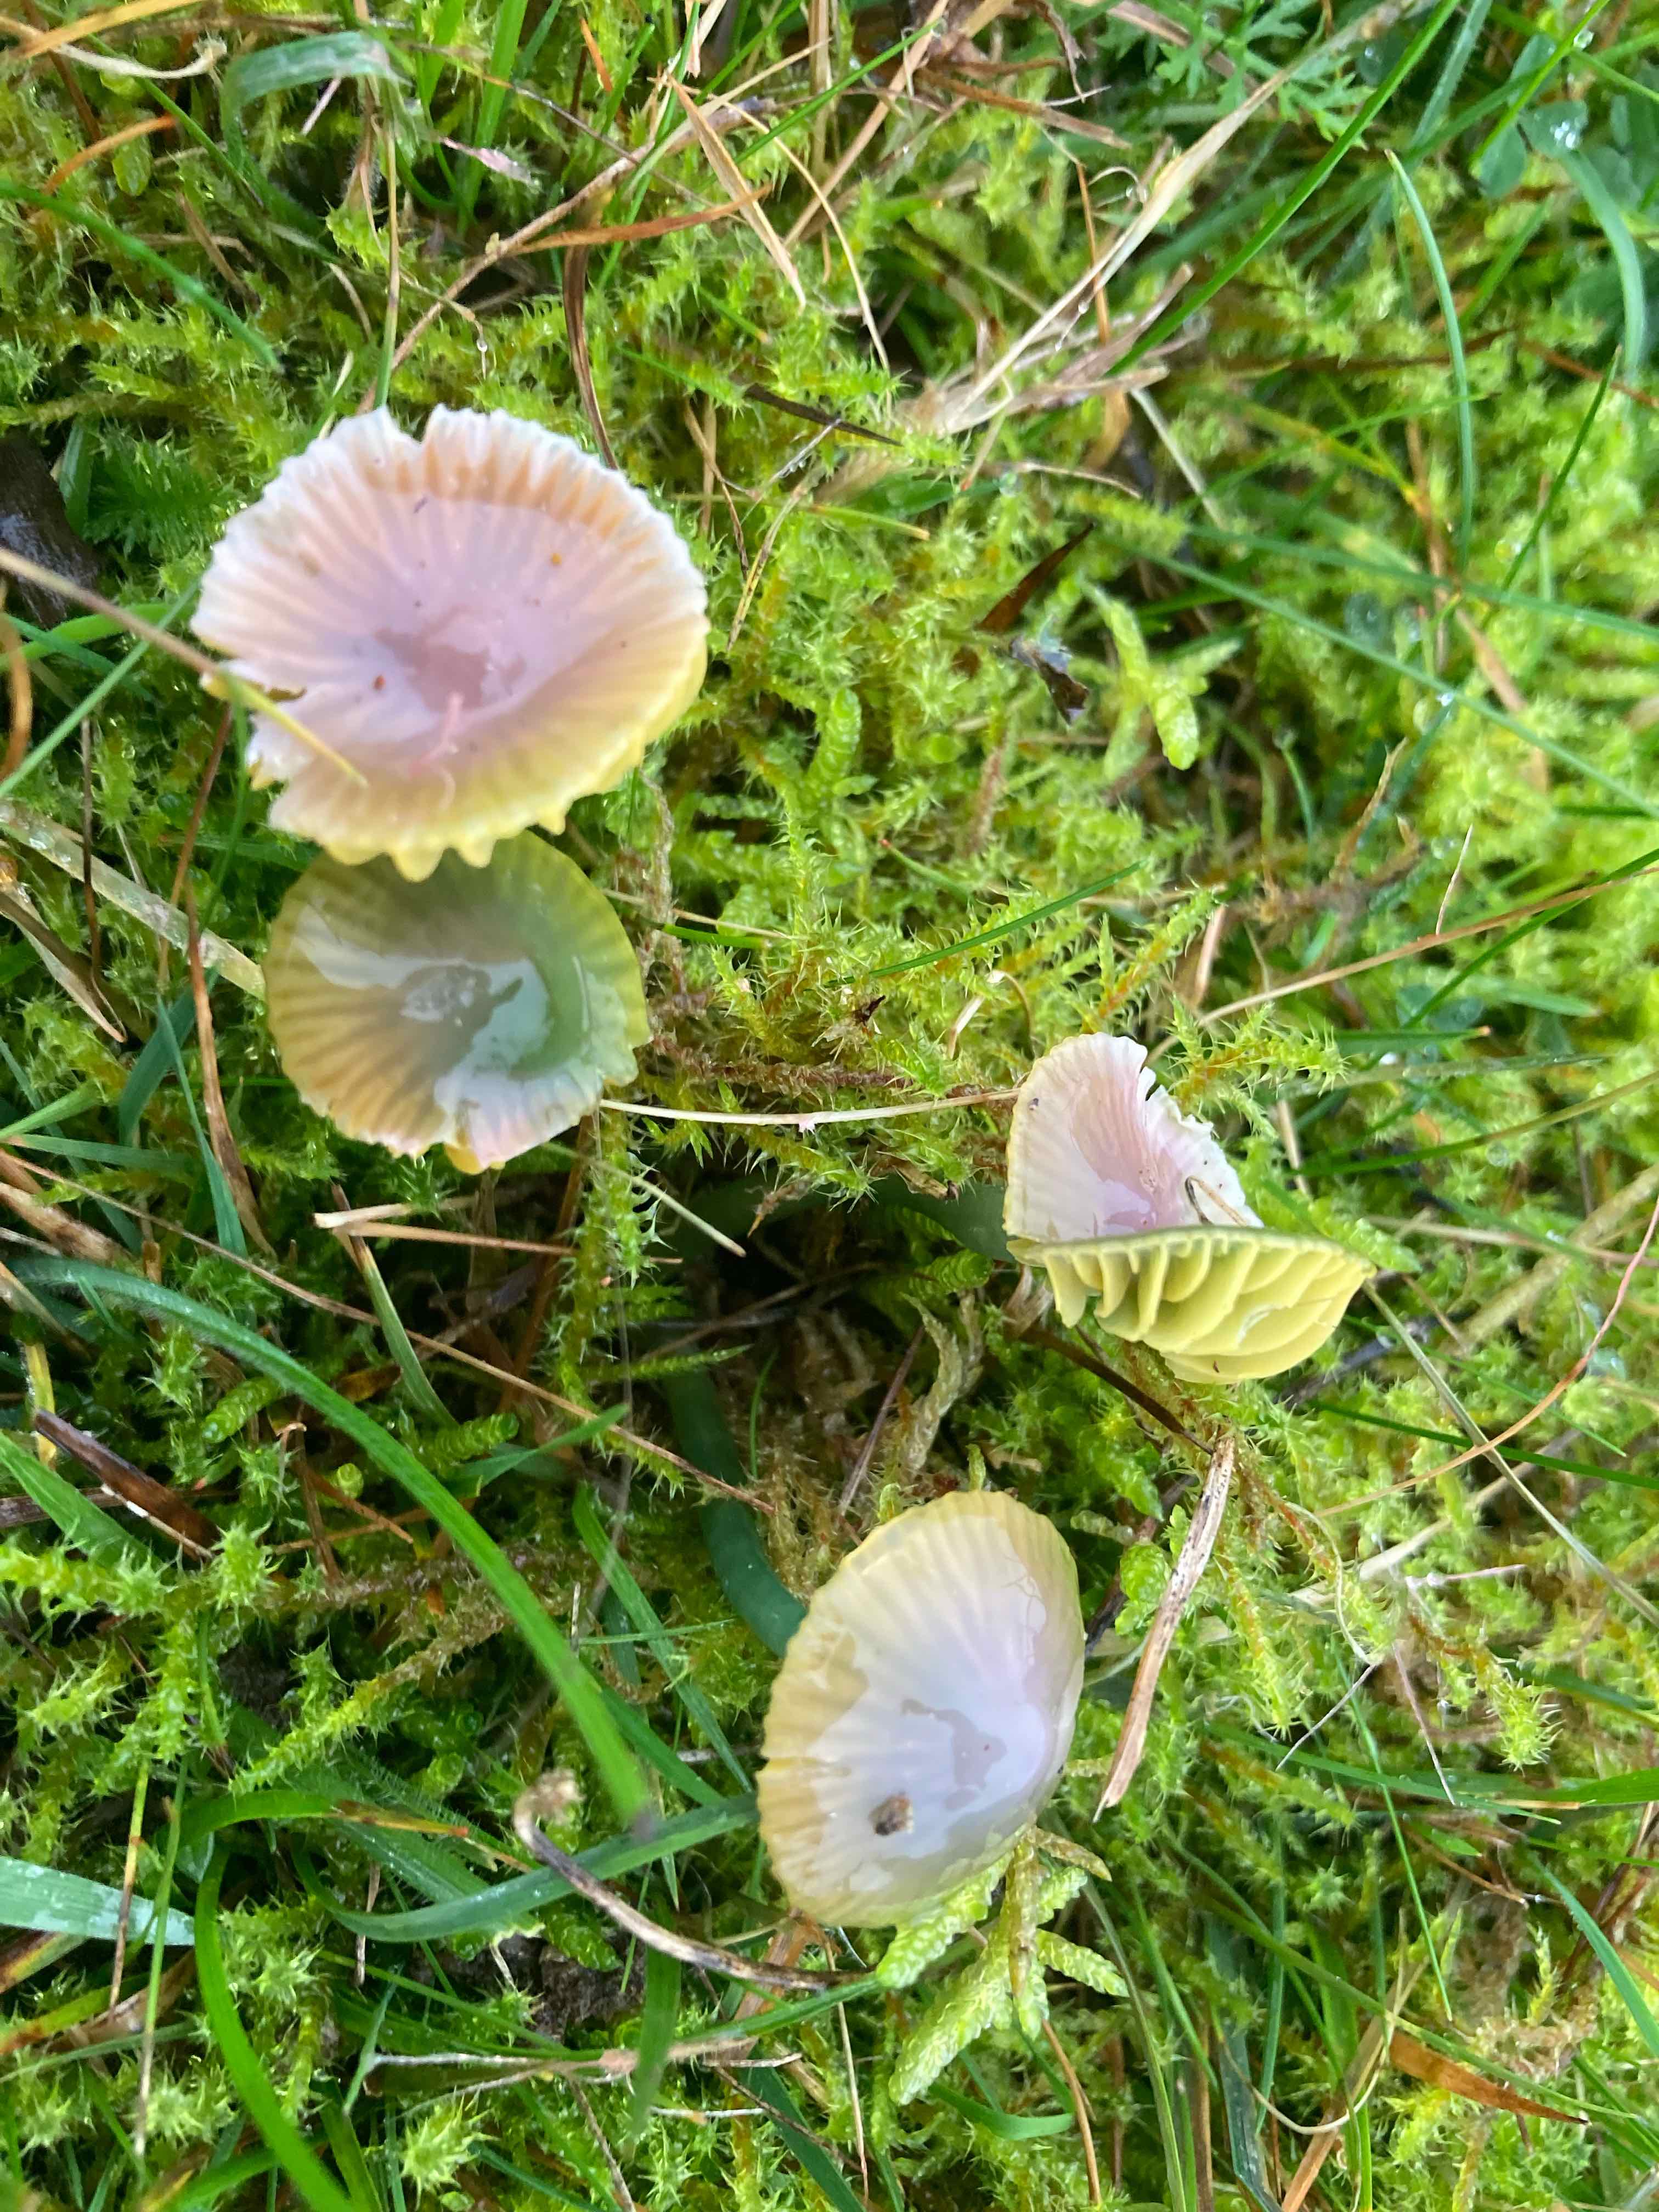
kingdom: Fungi
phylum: Basidiomycota
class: Agaricomycetes
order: Agaricales
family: Hygrophoraceae
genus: Gliophorus
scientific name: Gliophorus psittacinus
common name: papegøje-vokshat
